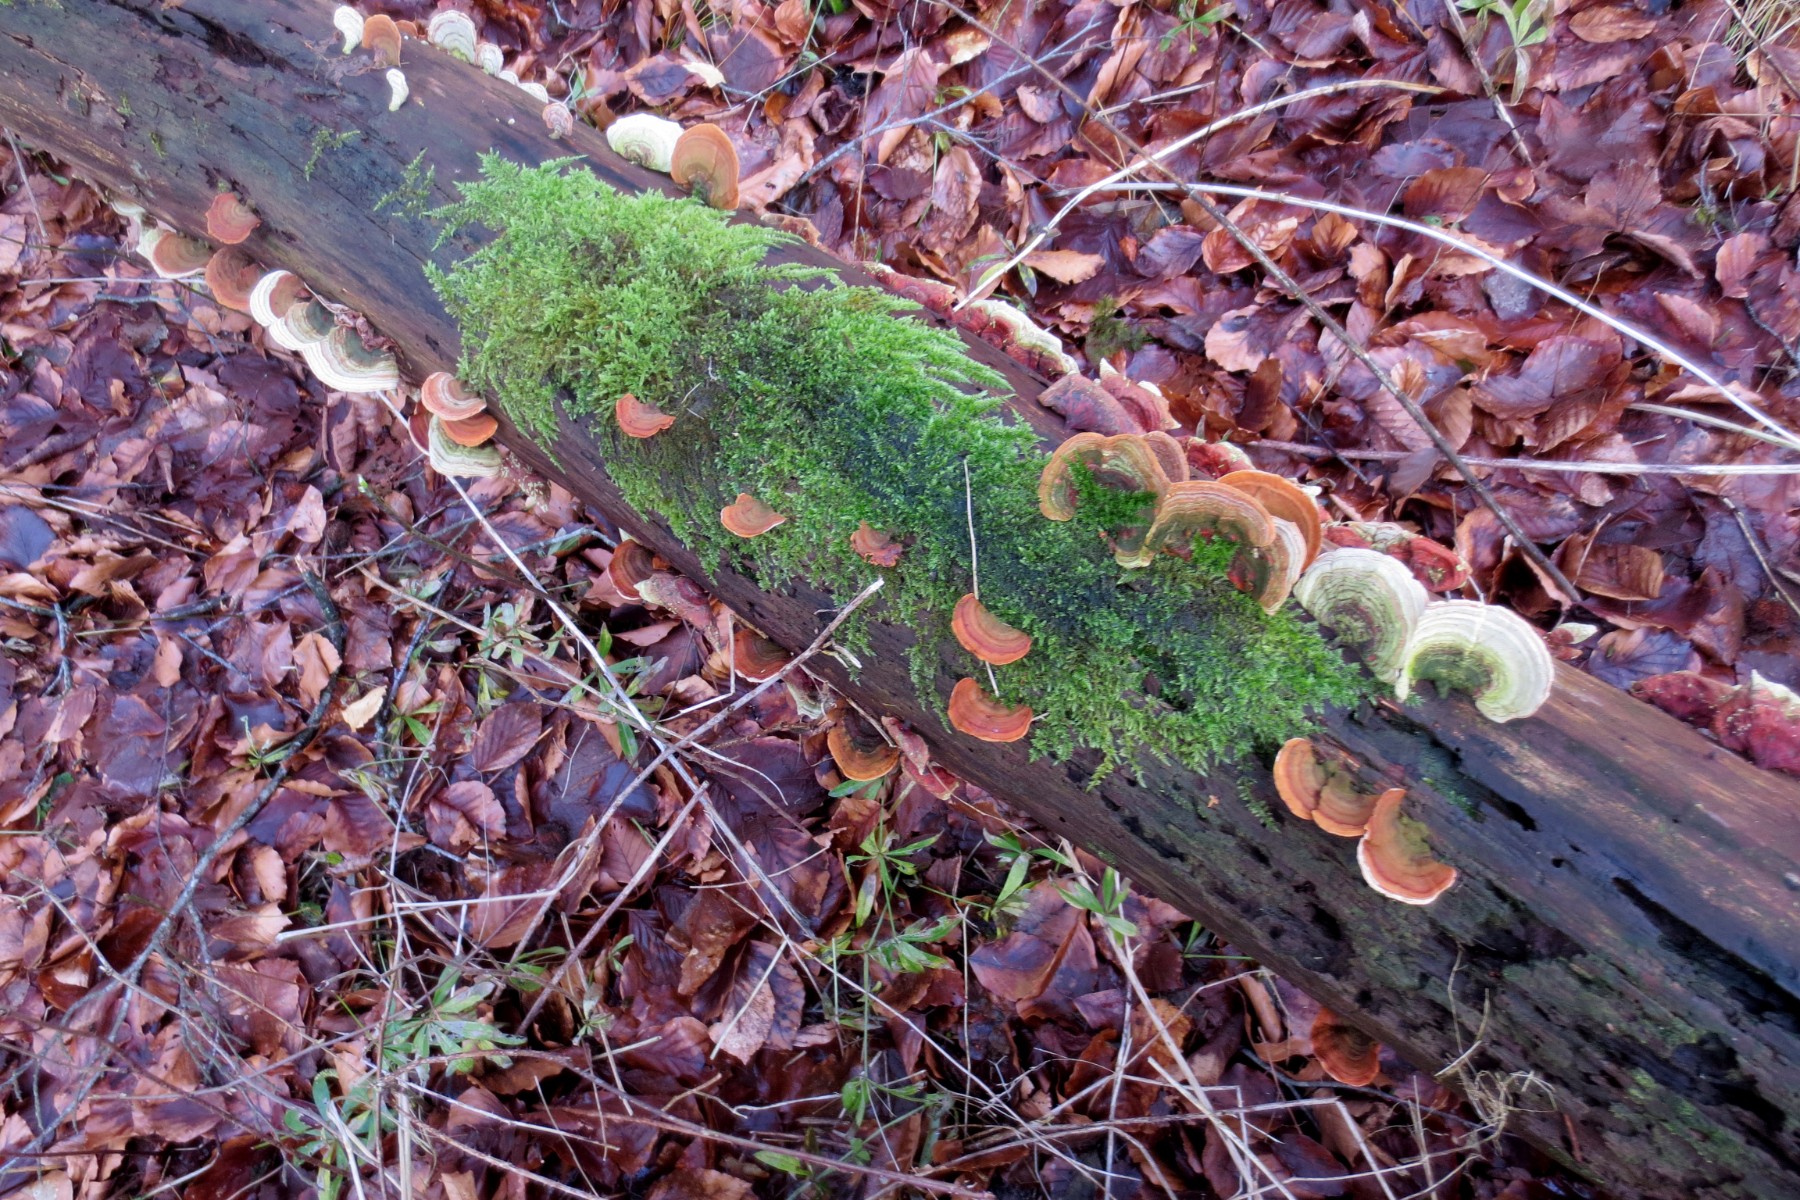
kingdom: Fungi
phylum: Basidiomycota
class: Agaricomycetes
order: Russulales
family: Stereaceae
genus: Stereum
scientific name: Stereum subtomentosum
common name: smuk lædersvamp
